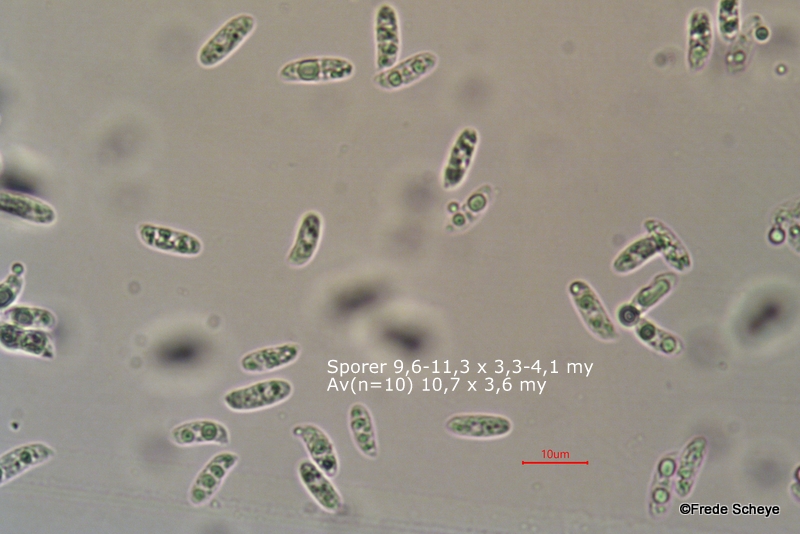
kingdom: Fungi
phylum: Basidiomycota
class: Agaricomycetes
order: Polyporales
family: Polyporaceae
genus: Podofomes
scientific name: Podofomes mollis
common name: blød begporesvamp
